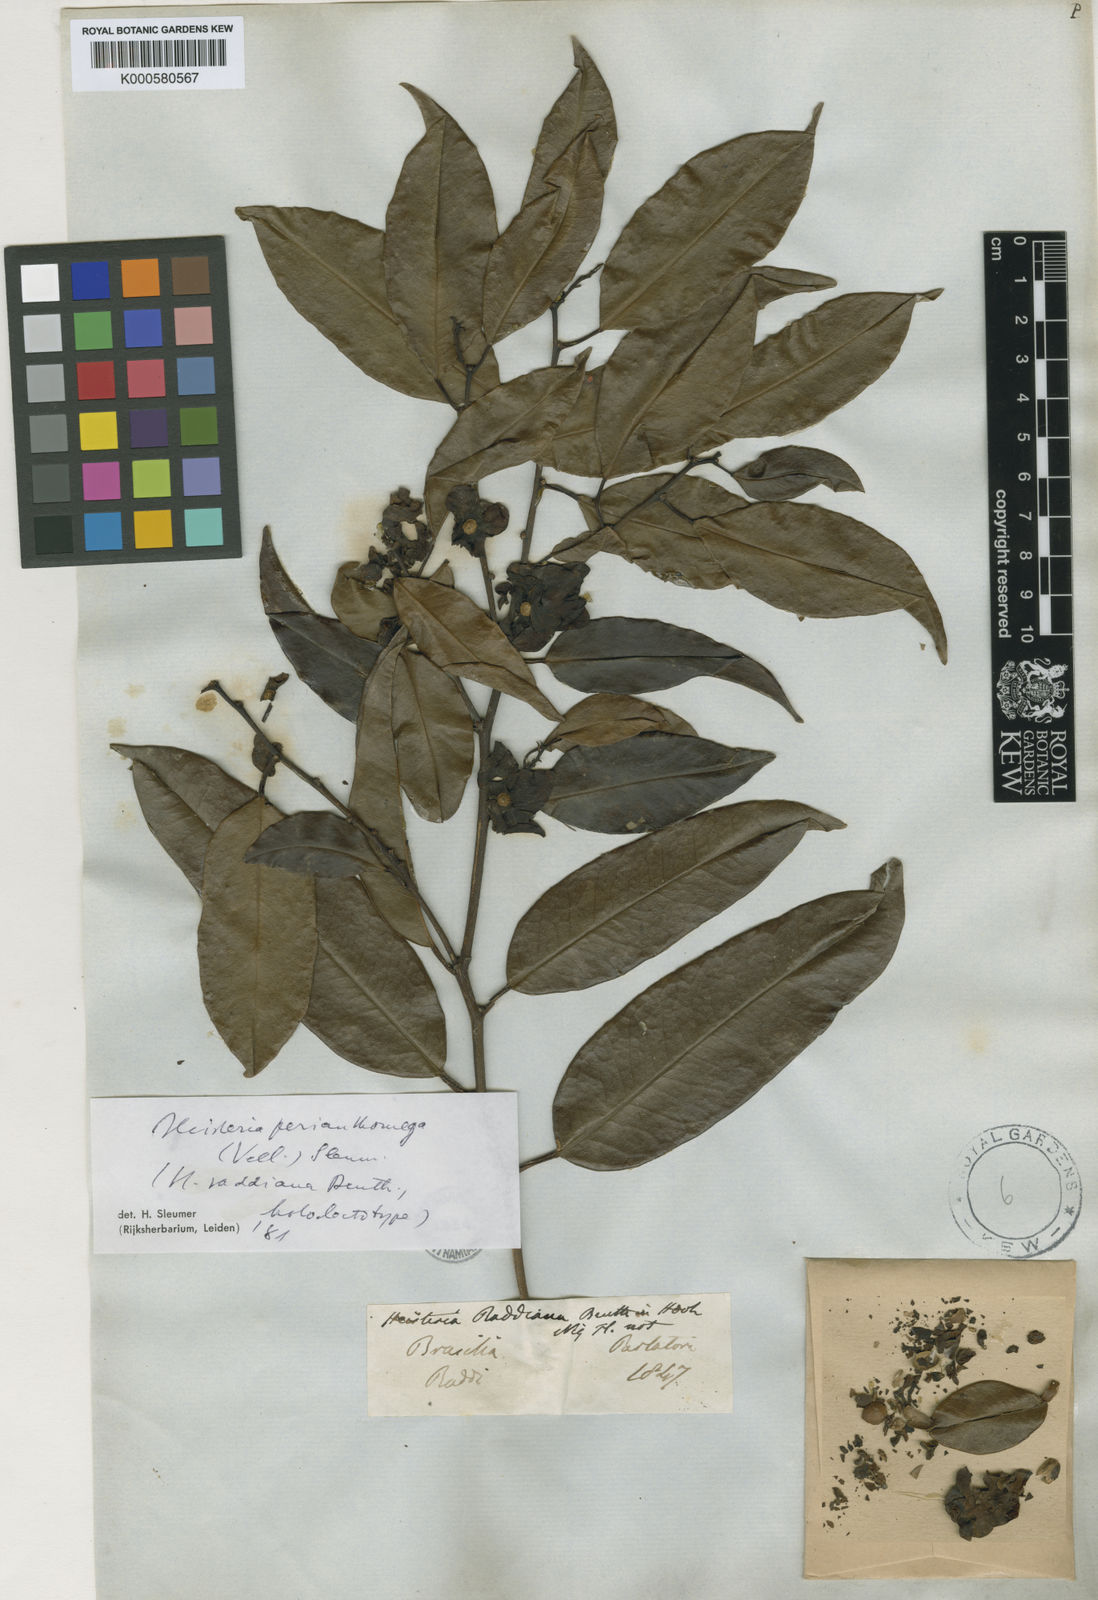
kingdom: Plantae
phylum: Tracheophyta
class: Magnoliopsida
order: Santalales
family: Erythropalaceae
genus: Heisteria
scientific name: Heisteria perianthomega
